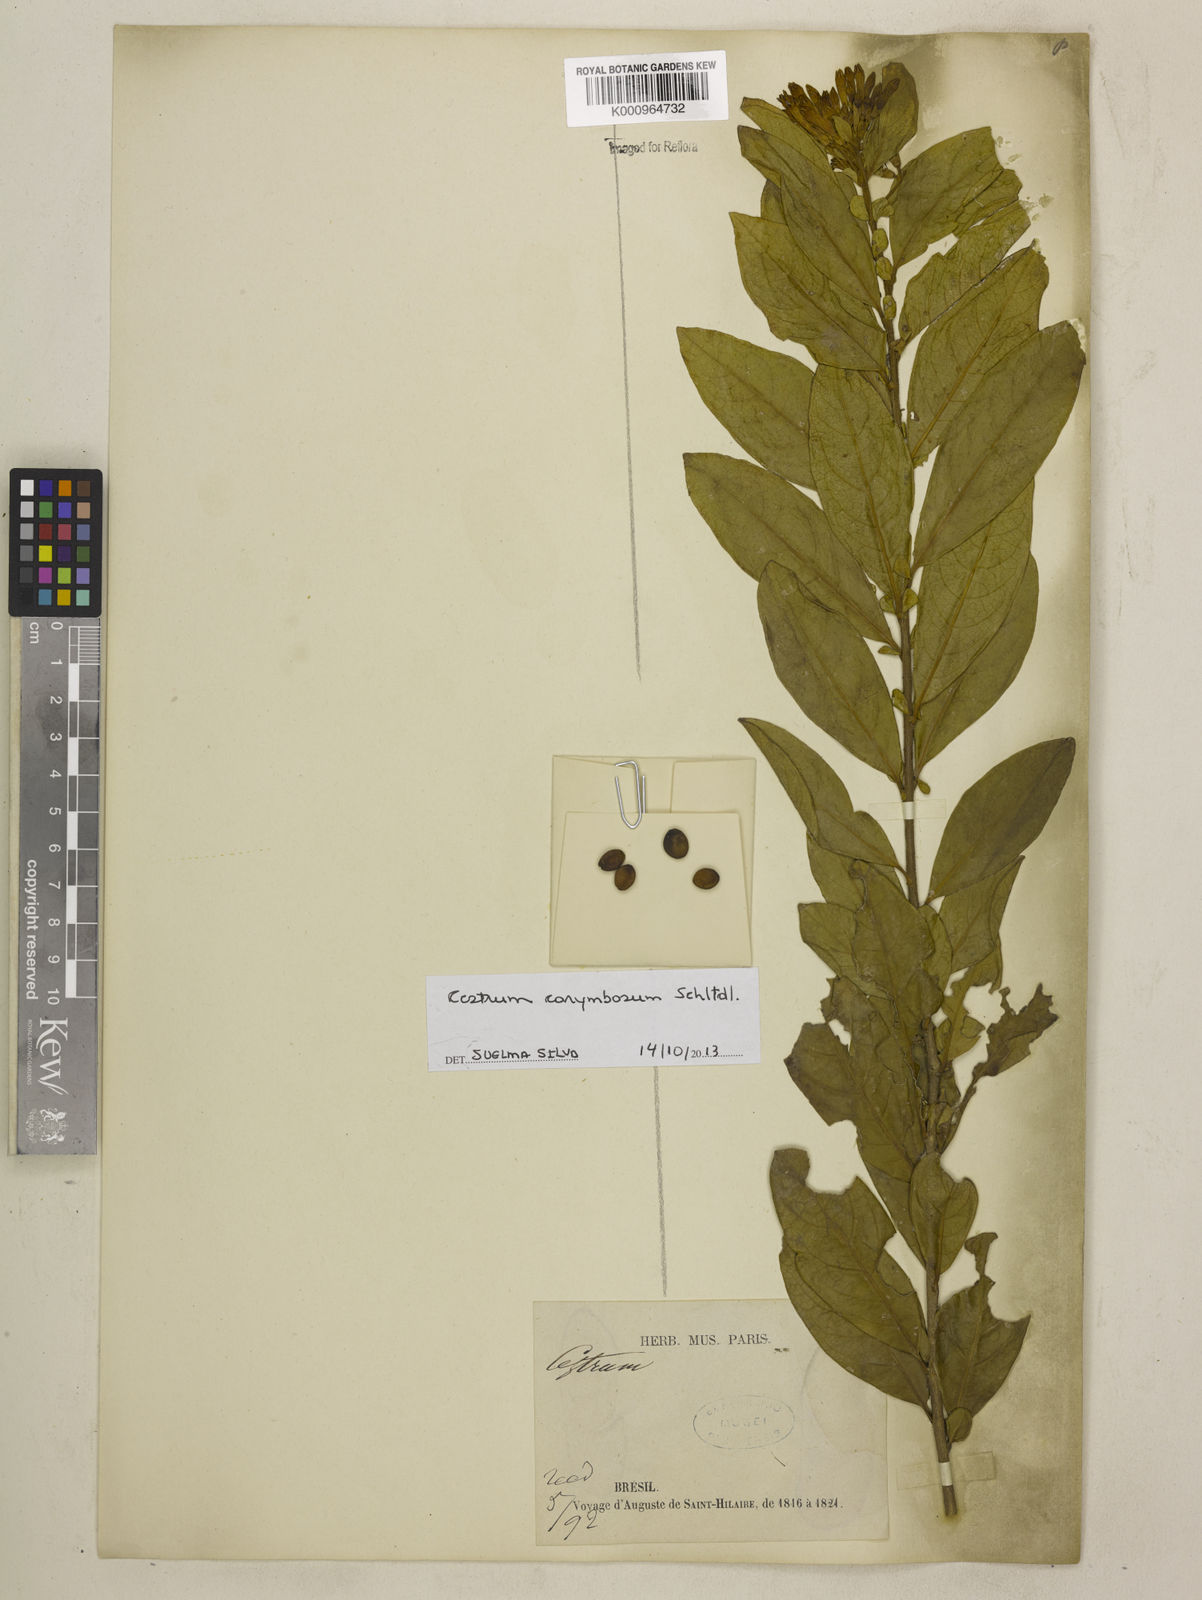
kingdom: Plantae
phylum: Tracheophyta
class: Magnoliopsida
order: Solanales
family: Solanaceae
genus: Cestrum
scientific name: Cestrum corymbosum
